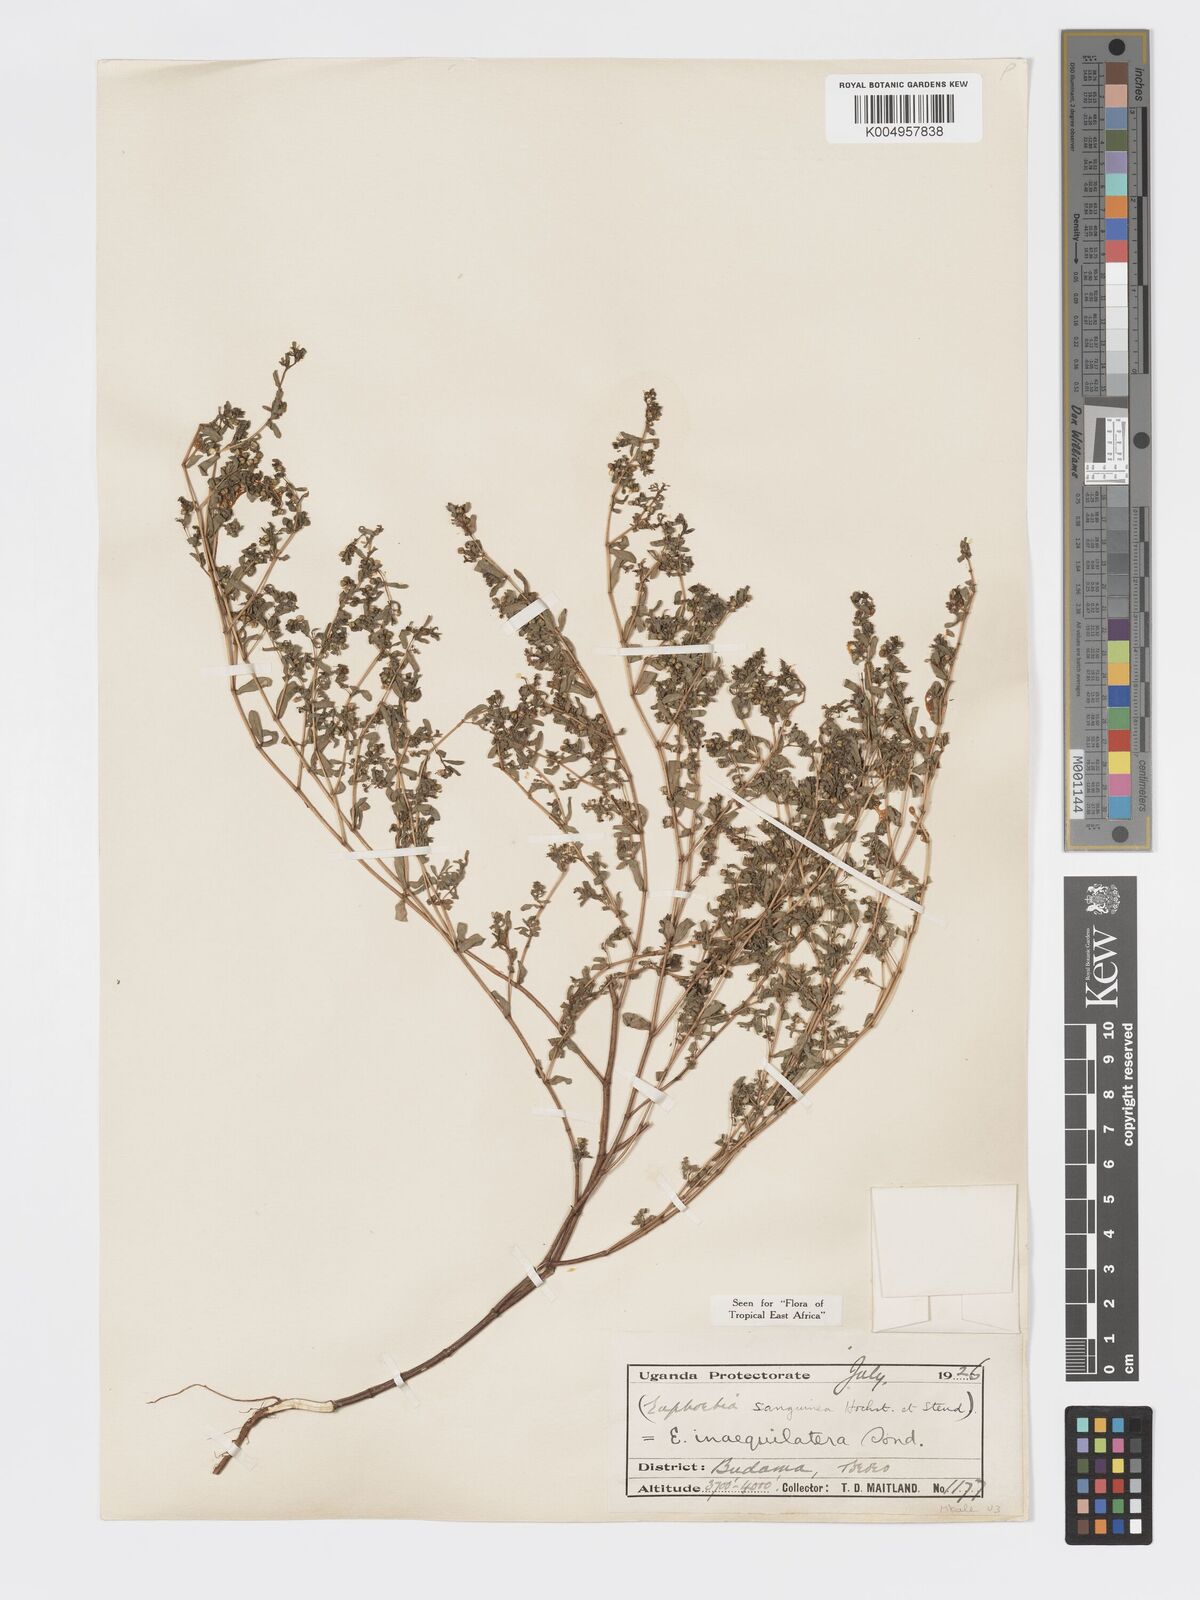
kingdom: Plantae
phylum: Tracheophyta
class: Magnoliopsida
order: Malpighiales
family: Euphorbiaceae
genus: Euphorbia
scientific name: Euphorbia inaequilatera
